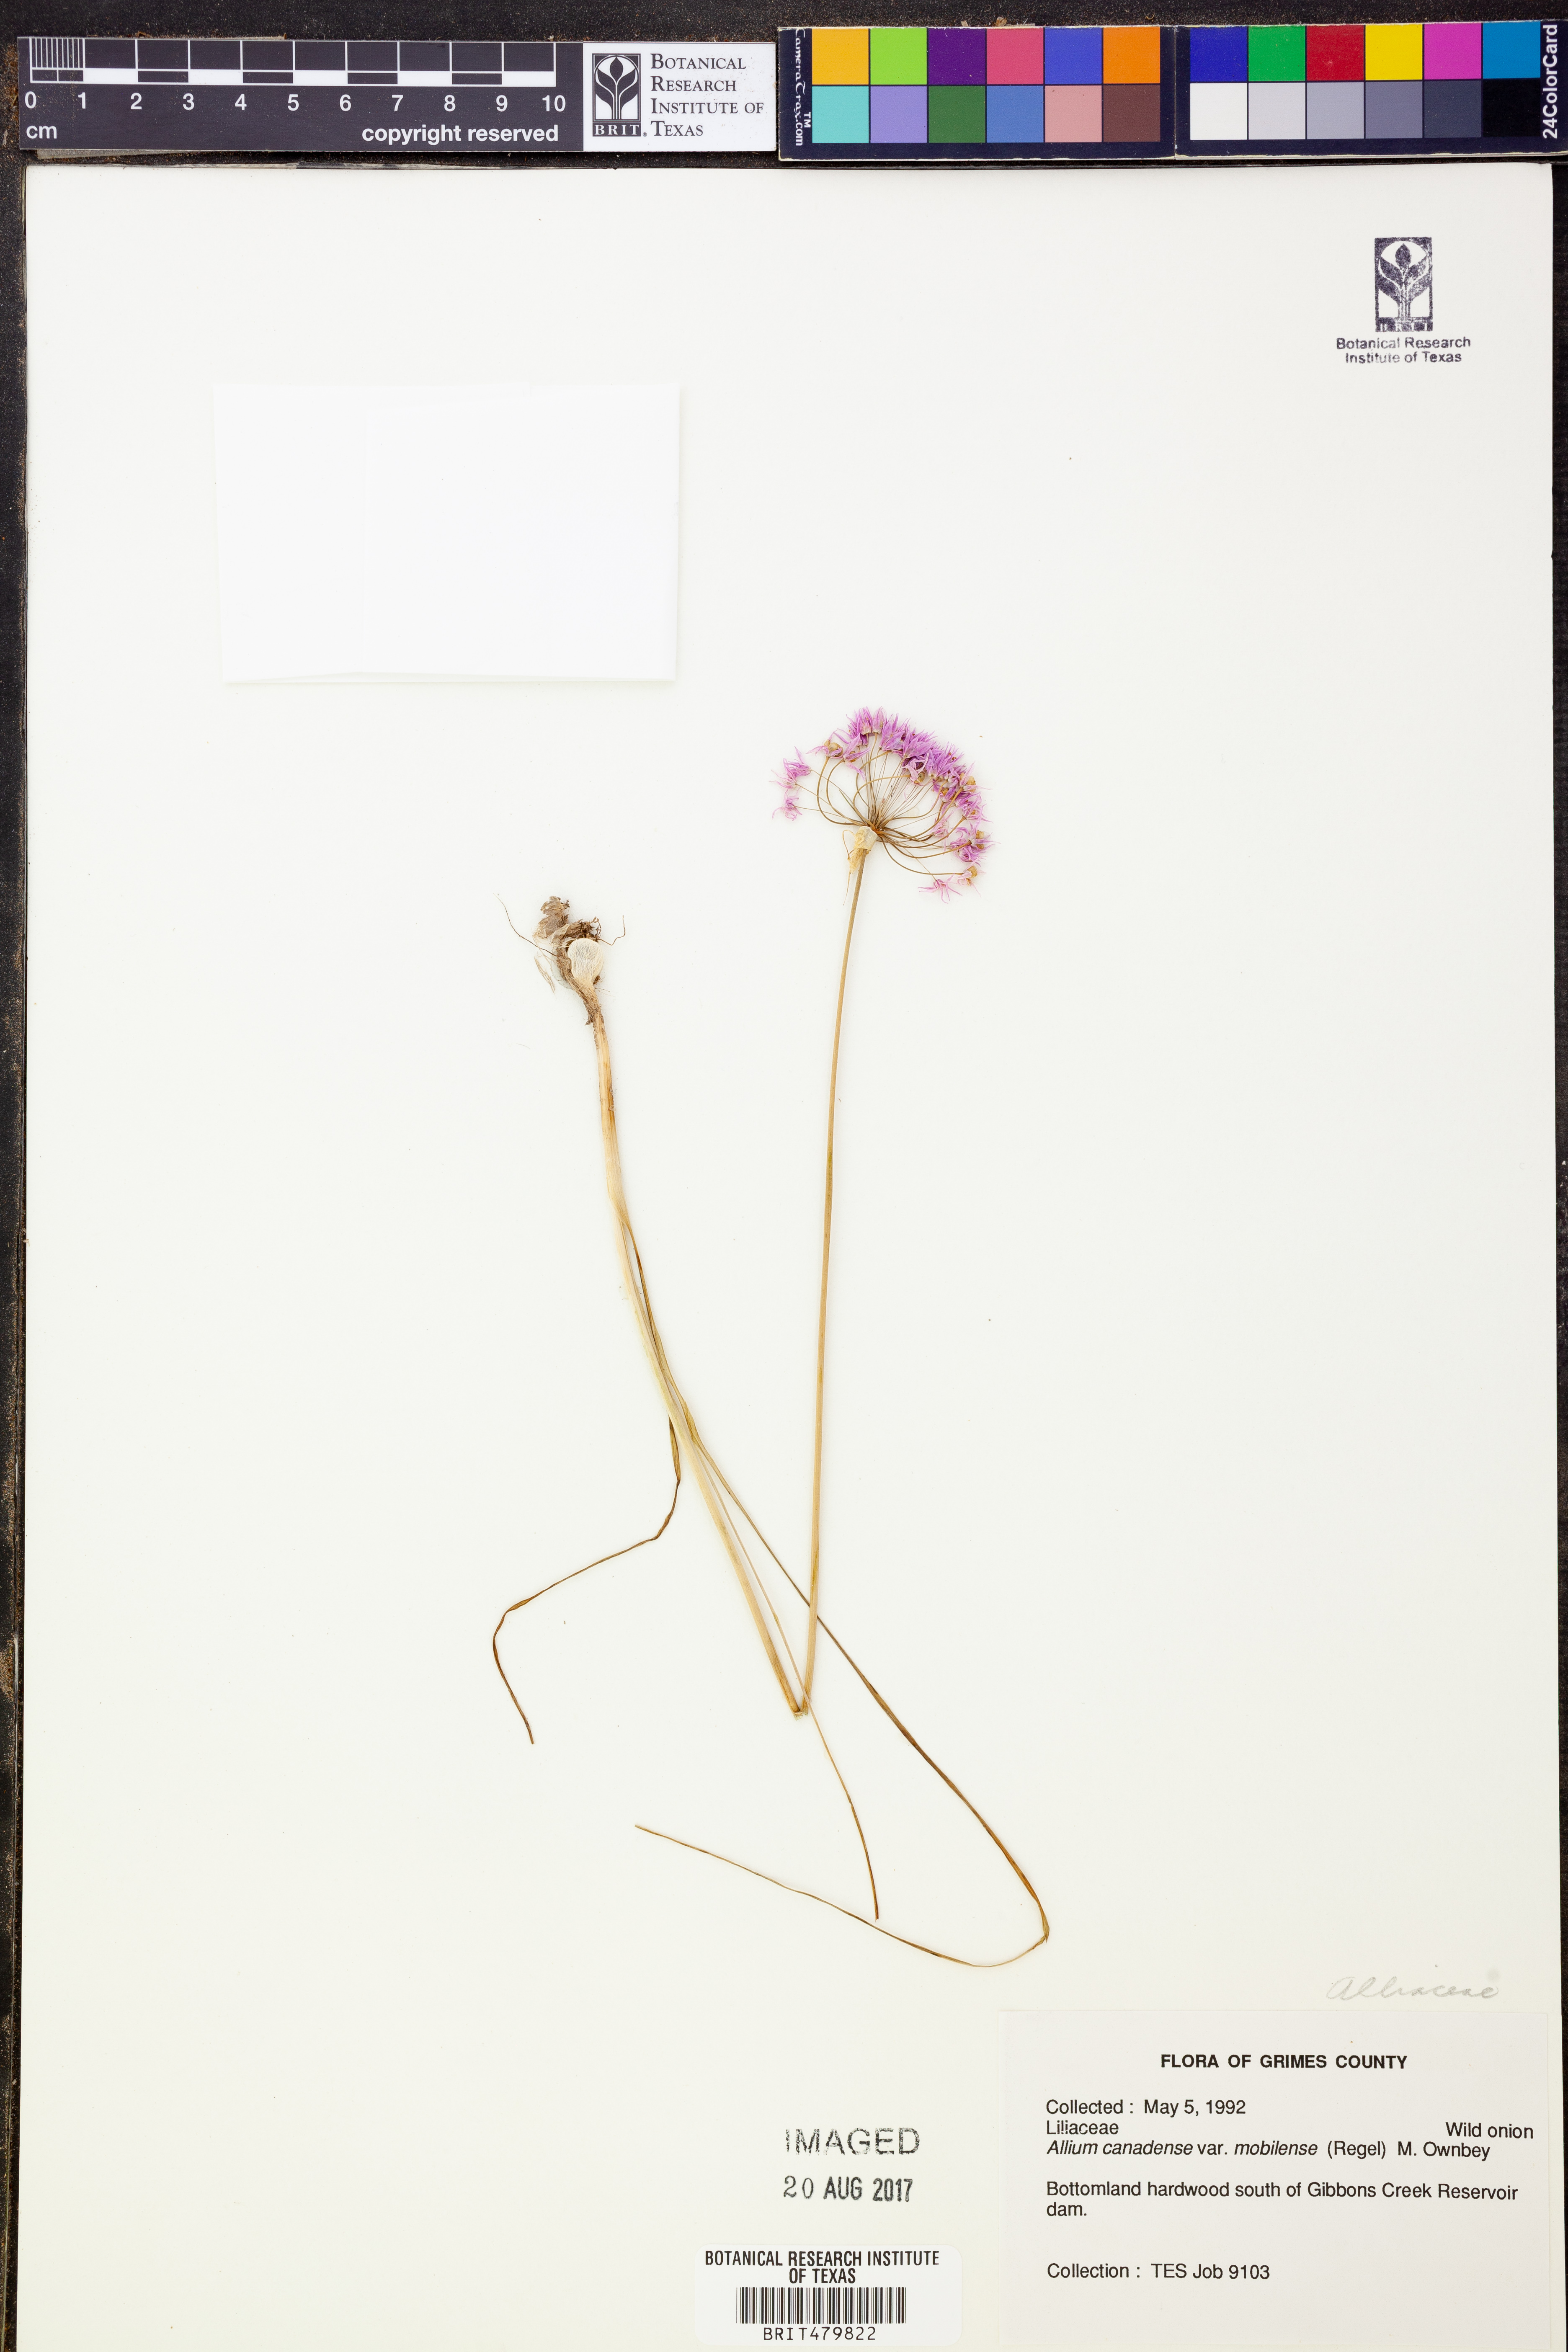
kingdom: Plantae
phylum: Tracheophyta
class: Liliopsida
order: Asparagales
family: Amaryllidaceae
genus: Allium
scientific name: Allium canadense
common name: Meadow garlic
